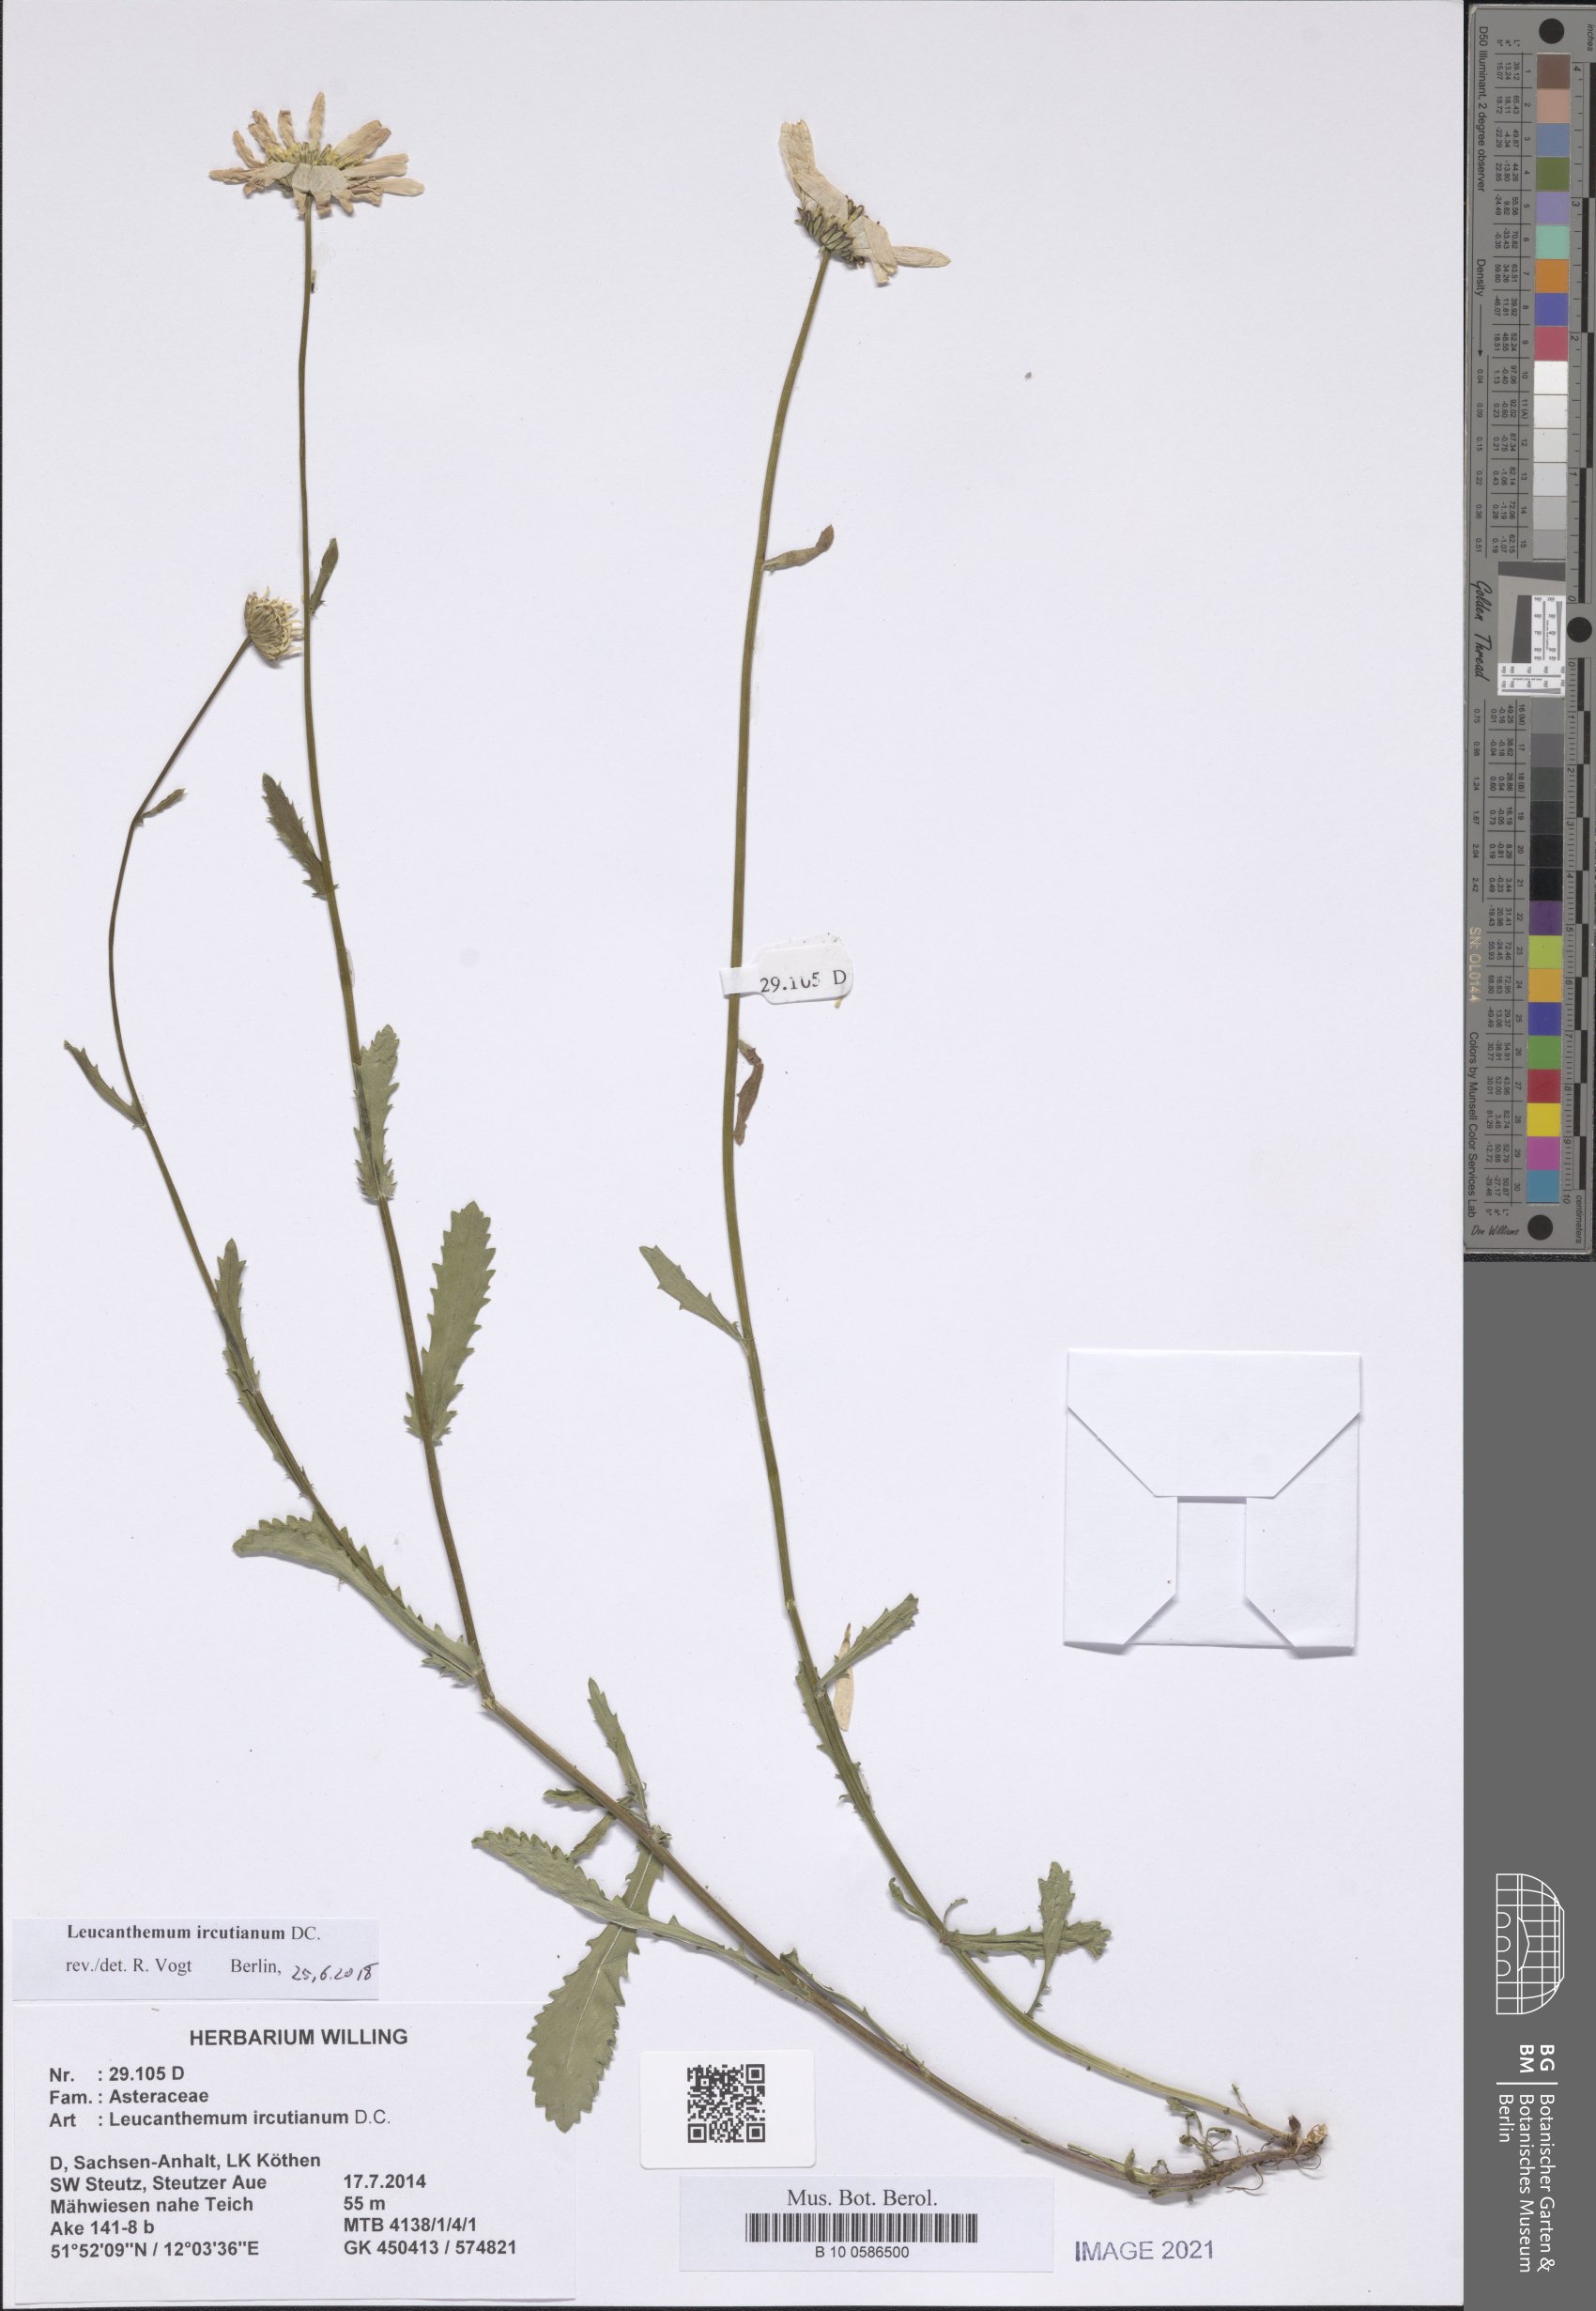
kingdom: Plantae
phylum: Tracheophyta
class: Magnoliopsida
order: Asterales
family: Asteraceae
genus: Leucanthemum
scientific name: Leucanthemum ircutianum
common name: Daisy
